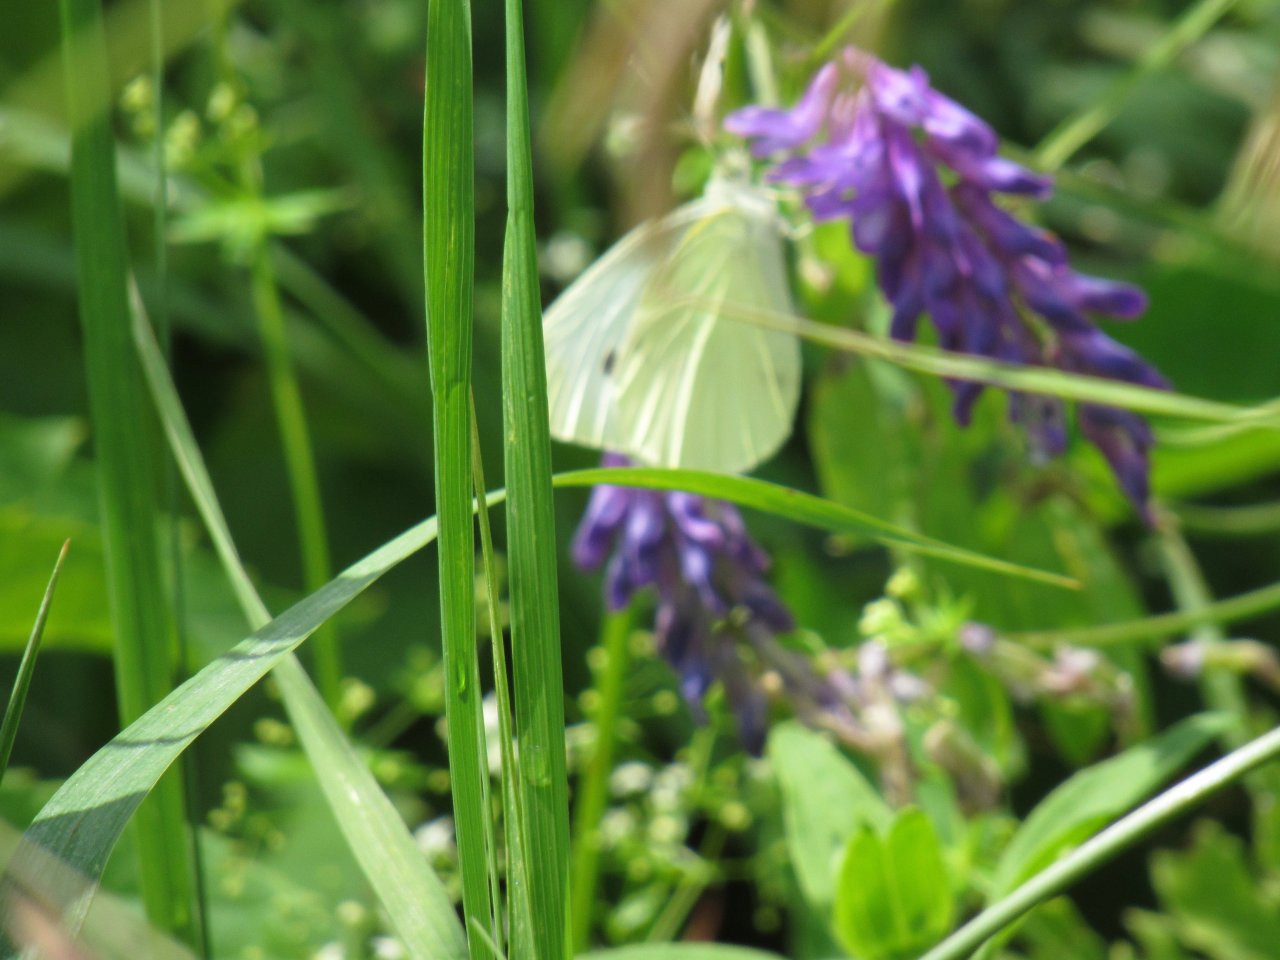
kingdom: Animalia
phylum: Arthropoda
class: Insecta
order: Lepidoptera
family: Pieridae
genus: Pieris
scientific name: Pieris rapae
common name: Cabbage White
